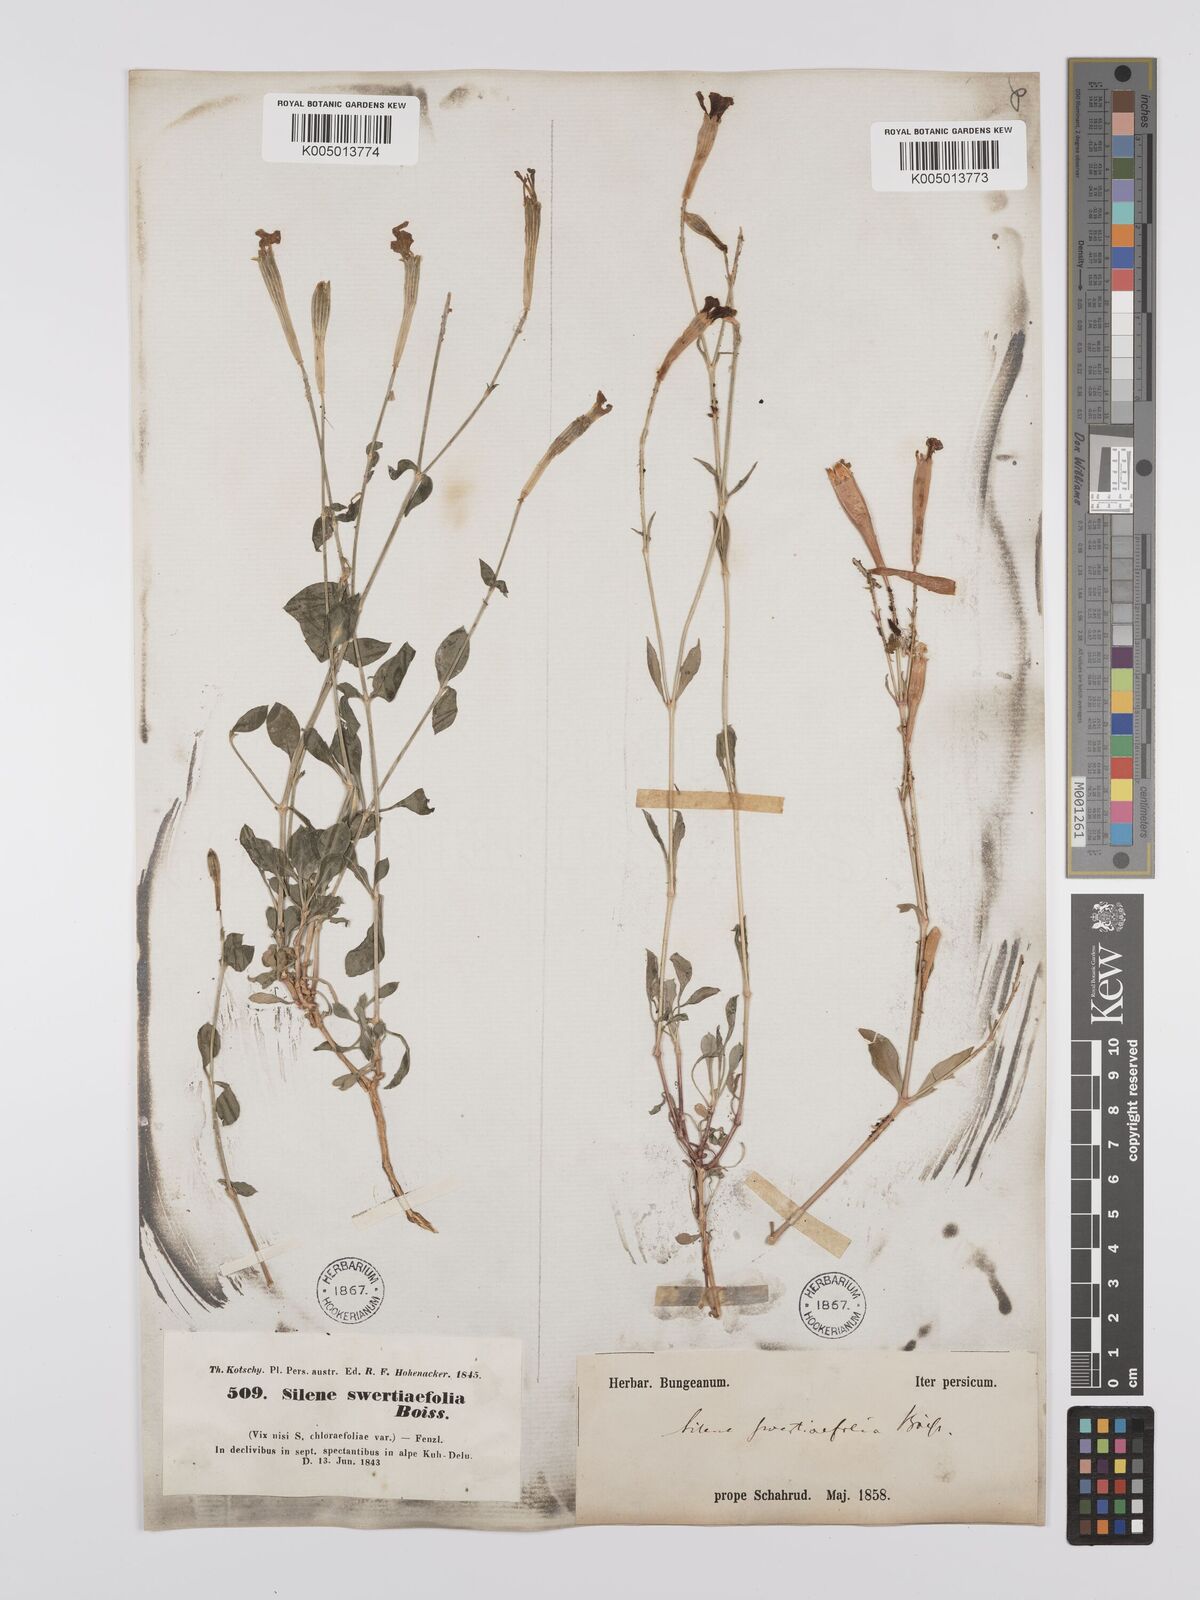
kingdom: Plantae
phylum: Tracheophyta
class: Magnoliopsida
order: Caryophyllales
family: Caryophyllaceae
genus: Silene
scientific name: Silene swertiifolia
